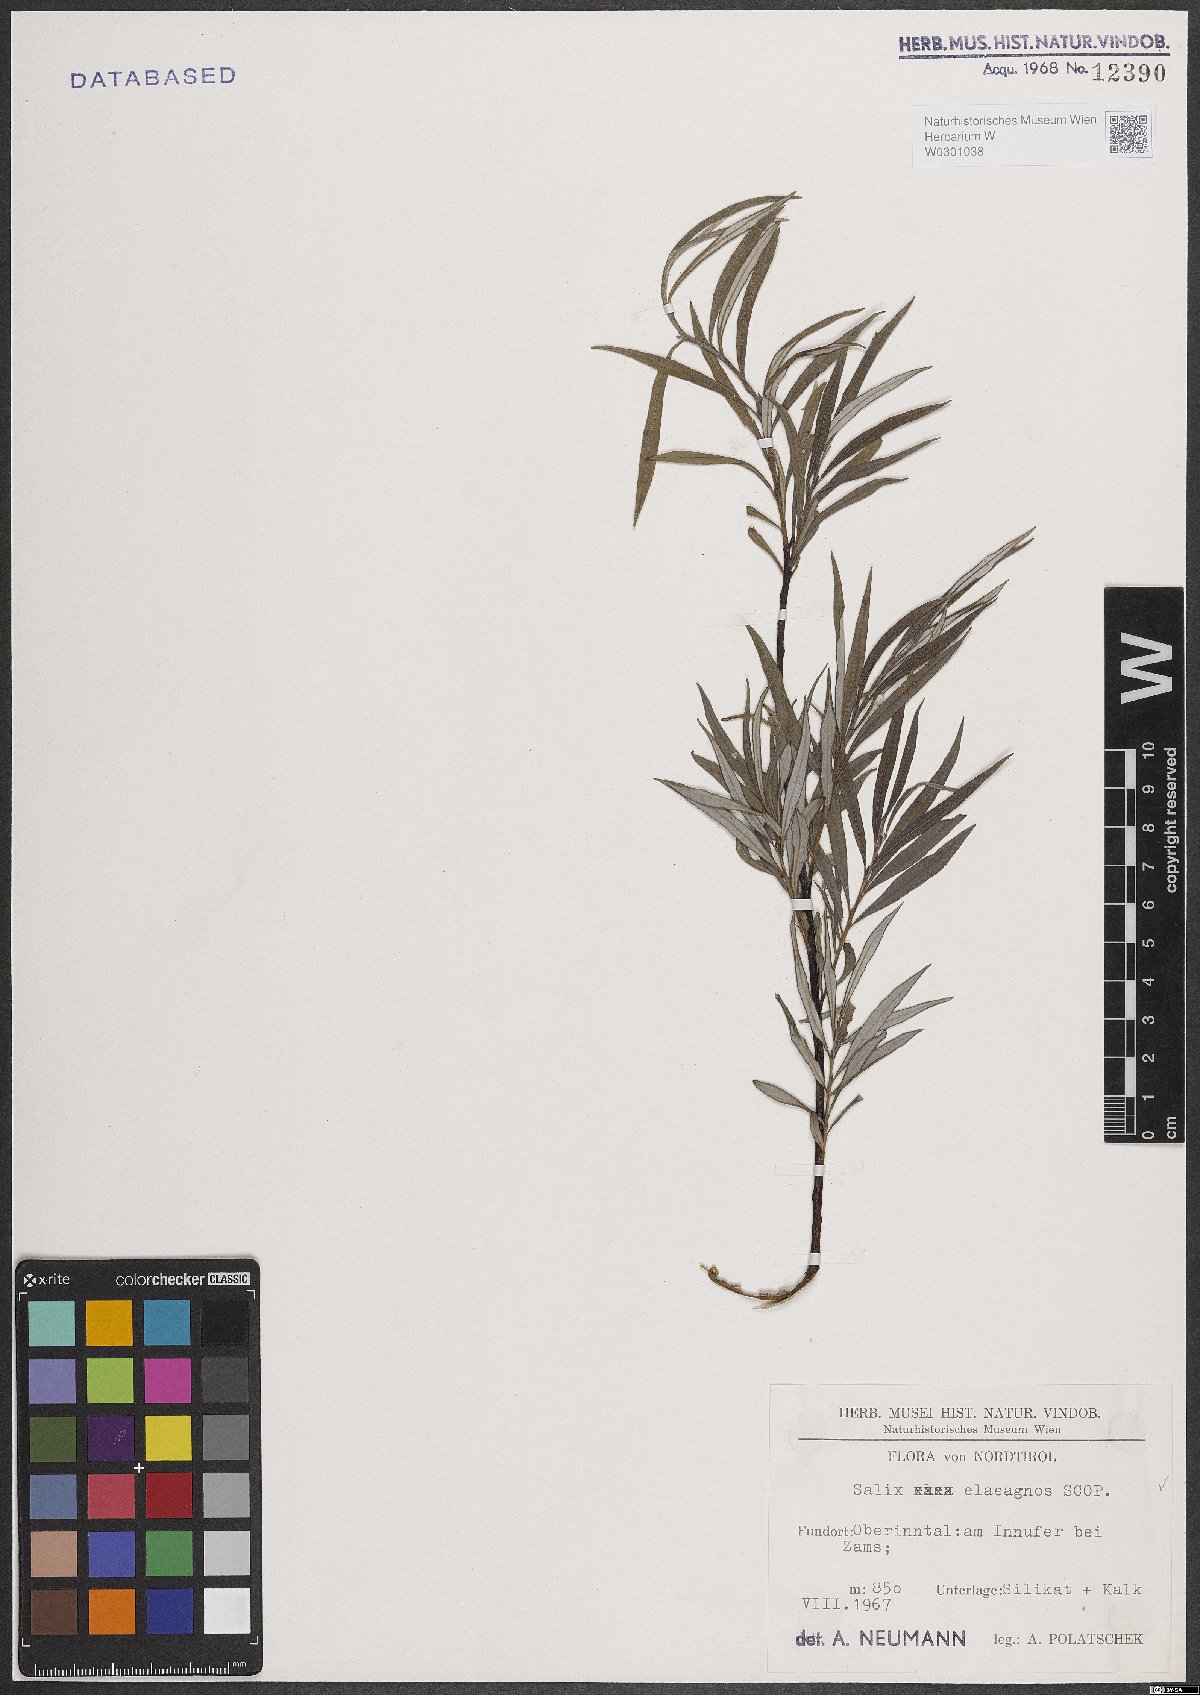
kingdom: Plantae
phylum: Tracheophyta
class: Magnoliopsida
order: Malpighiales
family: Salicaceae
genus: Salix
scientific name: Salix eleagnos
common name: Elaeagnus willow
